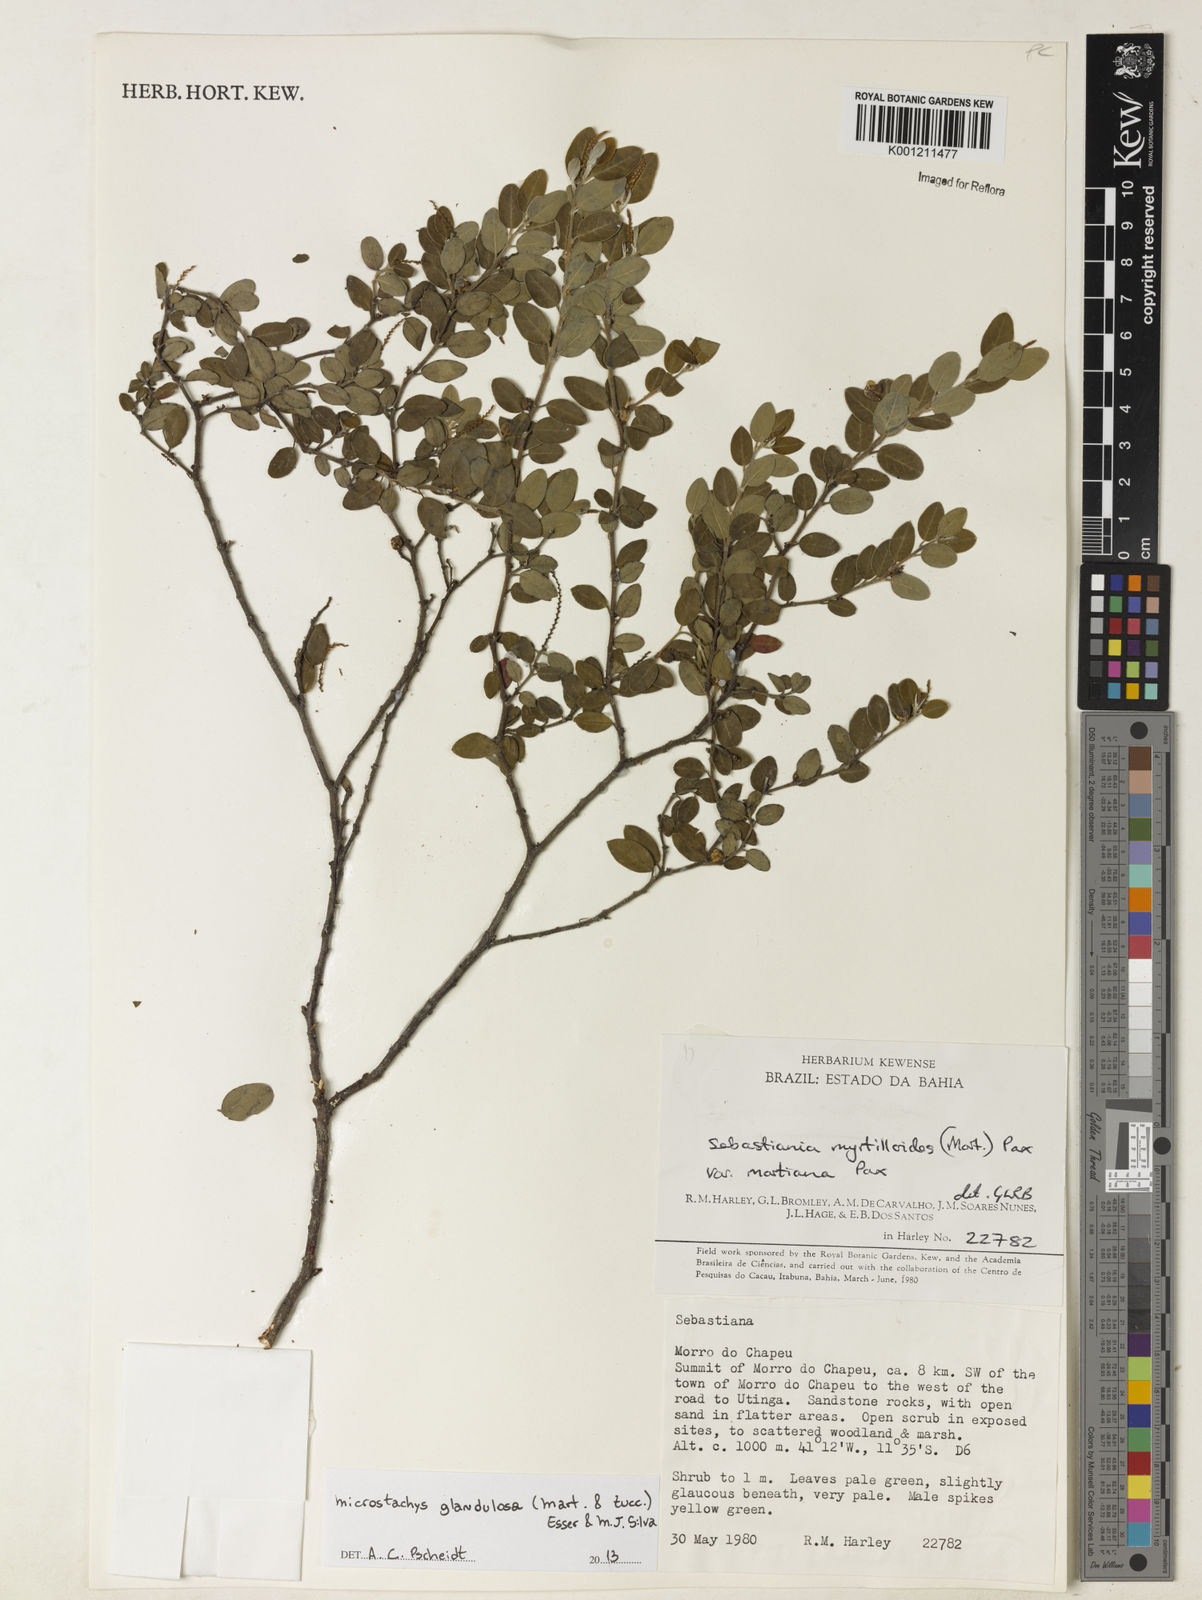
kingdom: Plantae
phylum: Tracheophyta
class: Magnoliopsida
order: Malpighiales
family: Euphorbiaceae
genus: Microstachys
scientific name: Microstachys glandulosa
